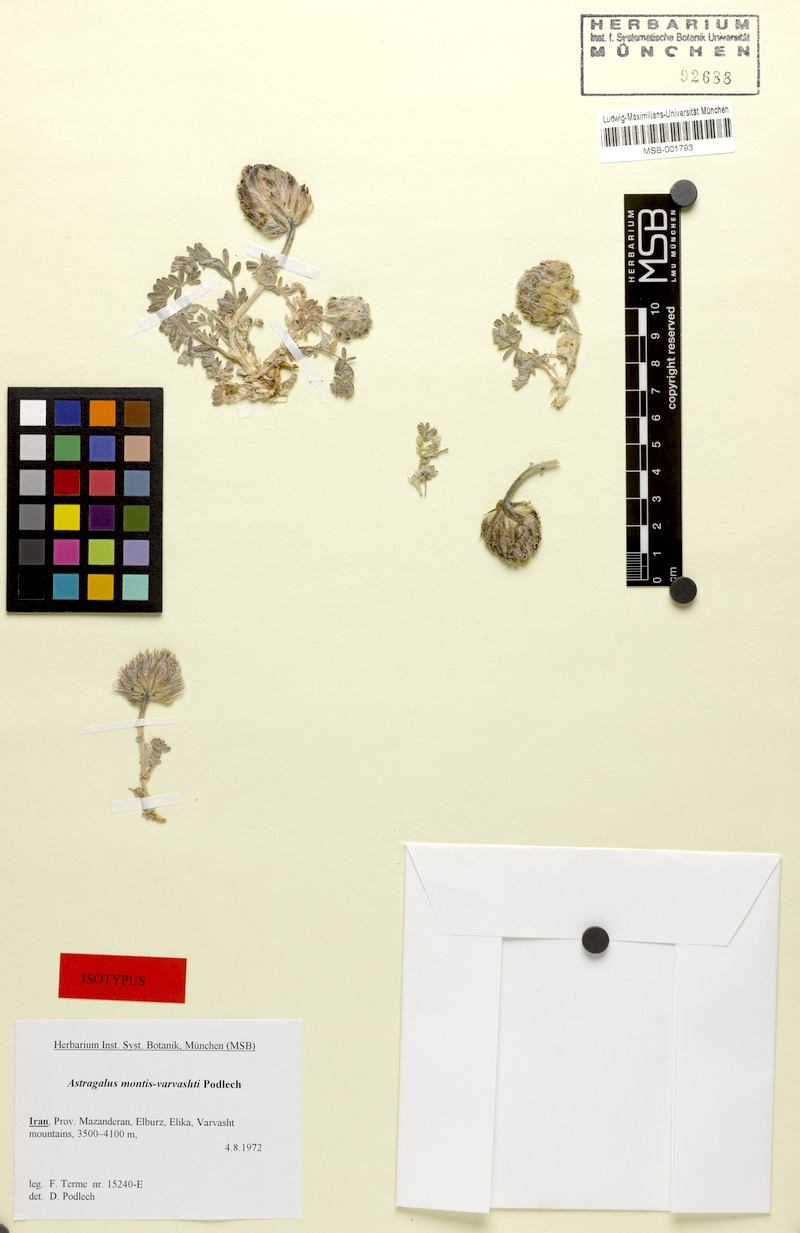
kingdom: Plantae
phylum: Tracheophyta
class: Magnoliopsida
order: Fabales
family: Fabaceae
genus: Astragalus
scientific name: Astragalus montis-varvashti
